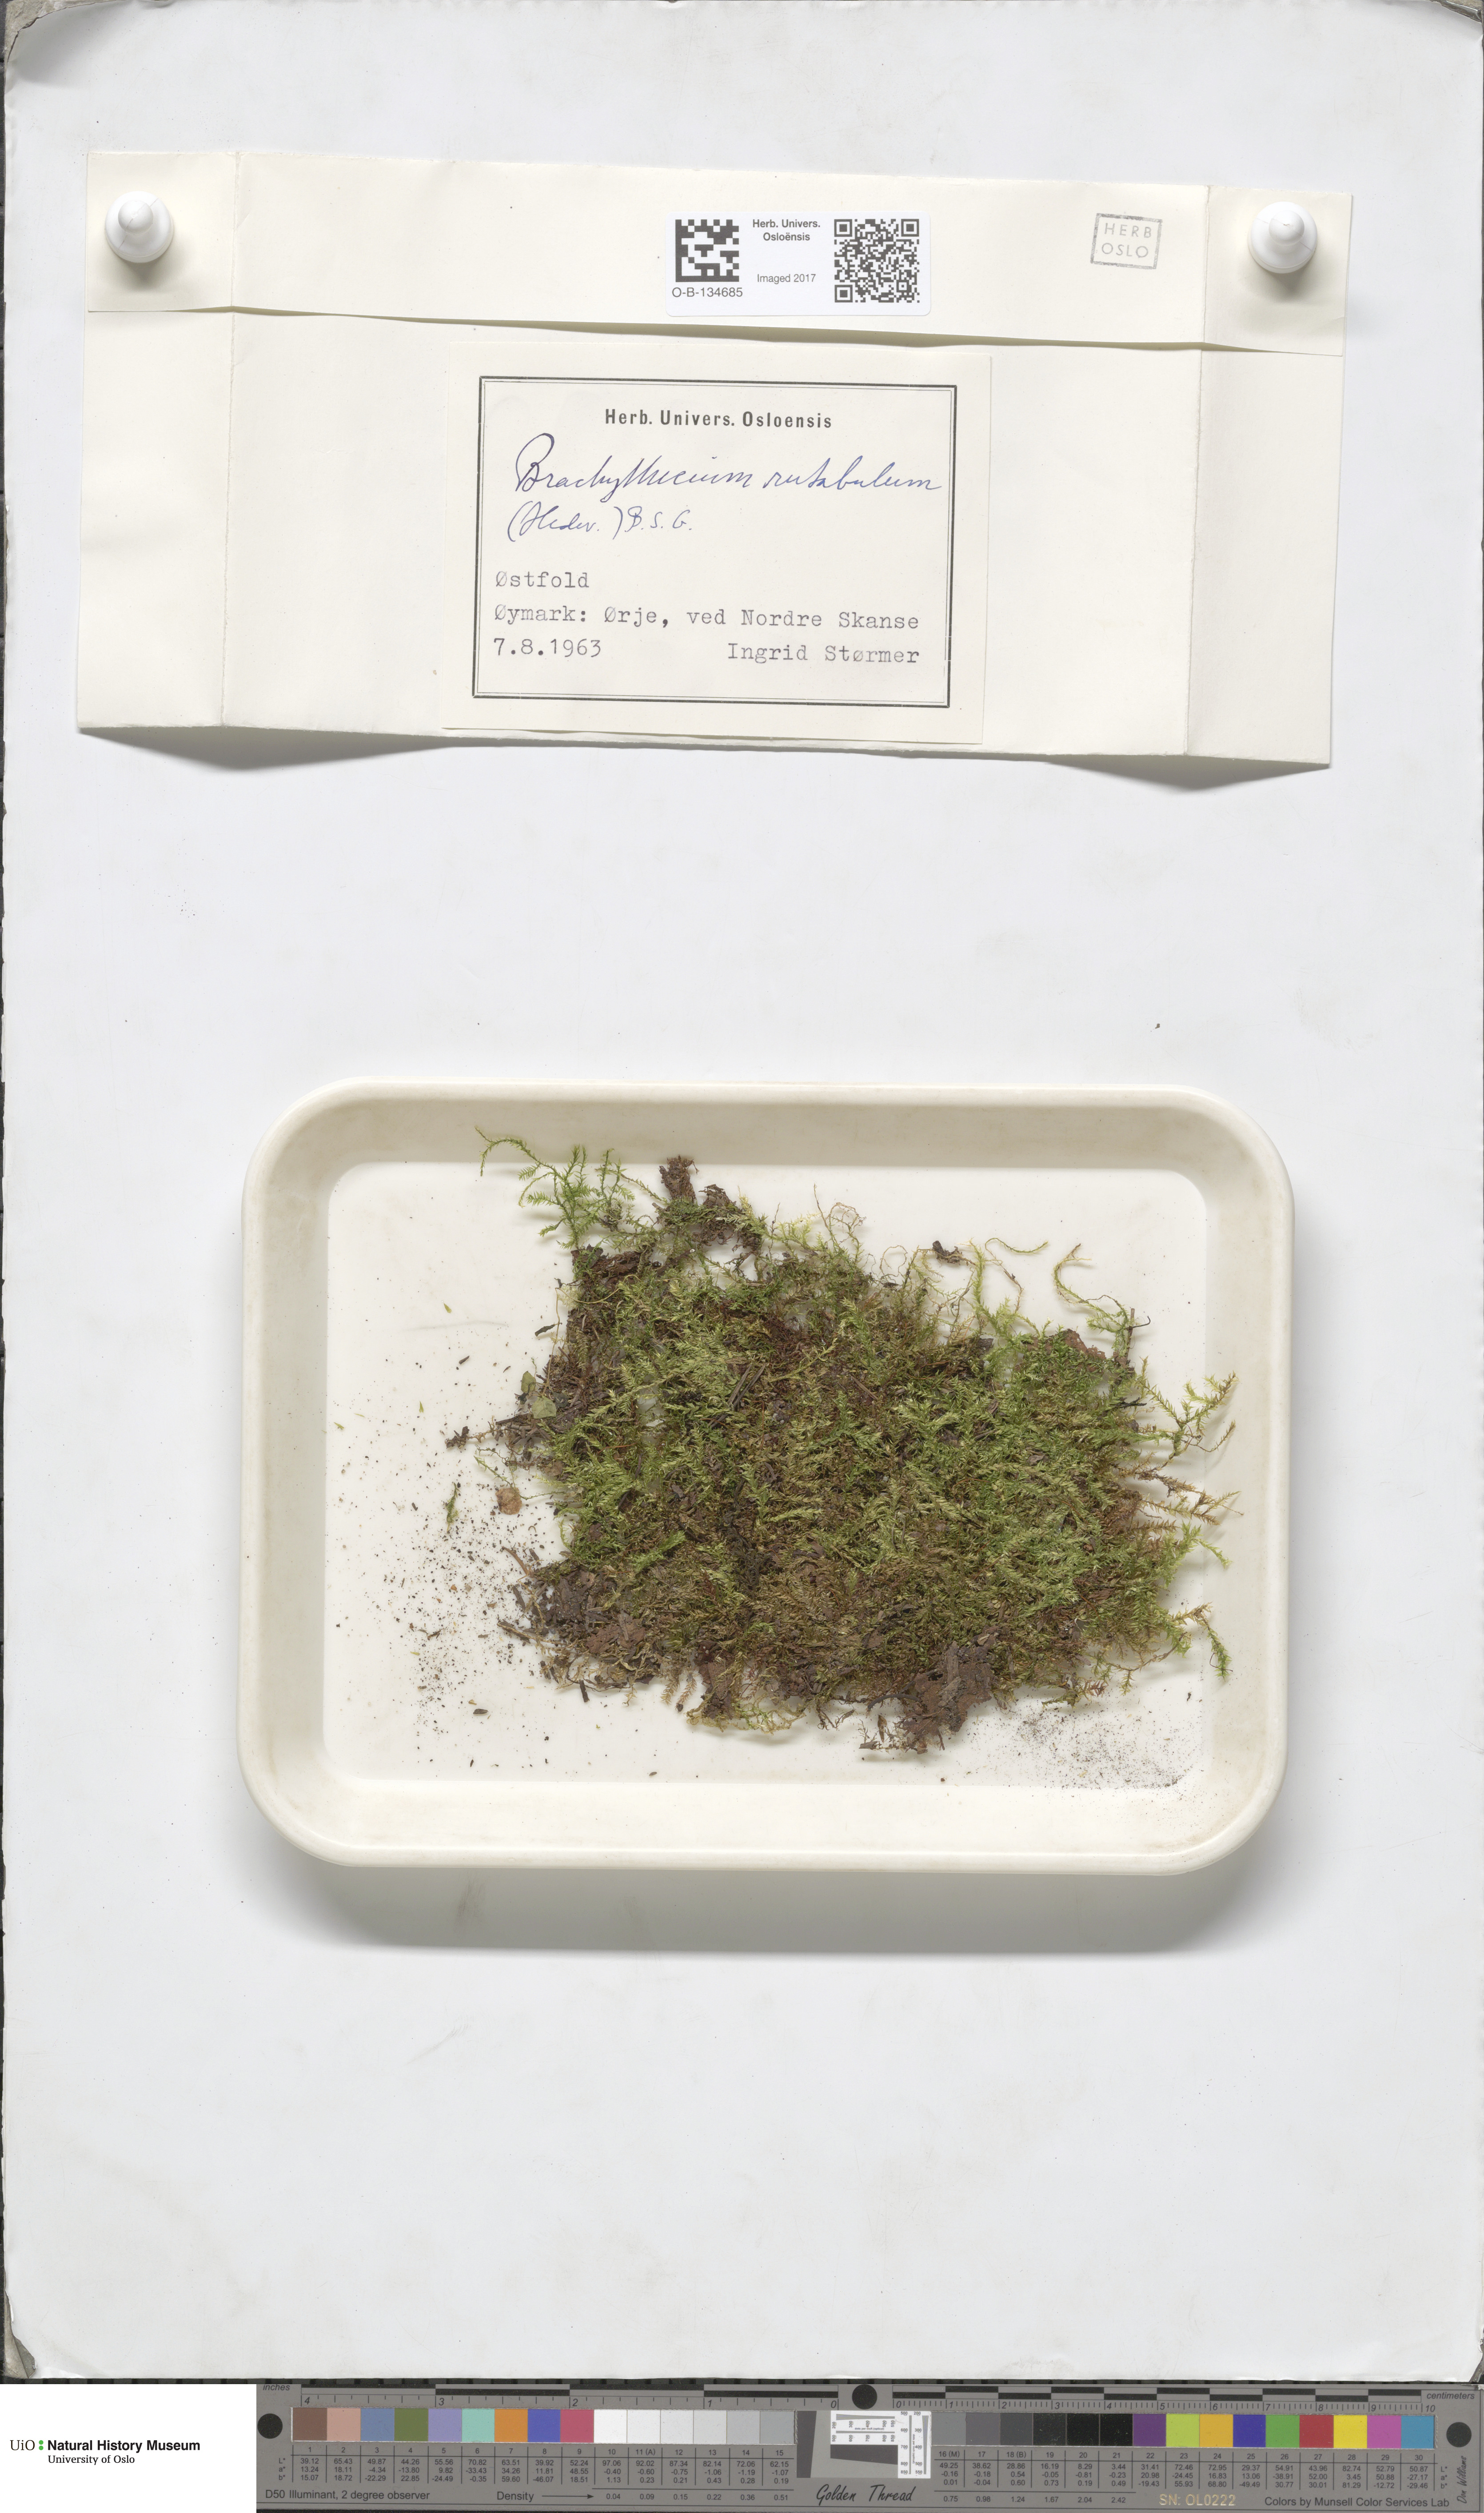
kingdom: Plantae
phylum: Bryophyta
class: Bryopsida
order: Hypnales
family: Brachytheciaceae
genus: Brachythecium
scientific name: Brachythecium rutabulum
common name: Rough-stalked feather-moss
